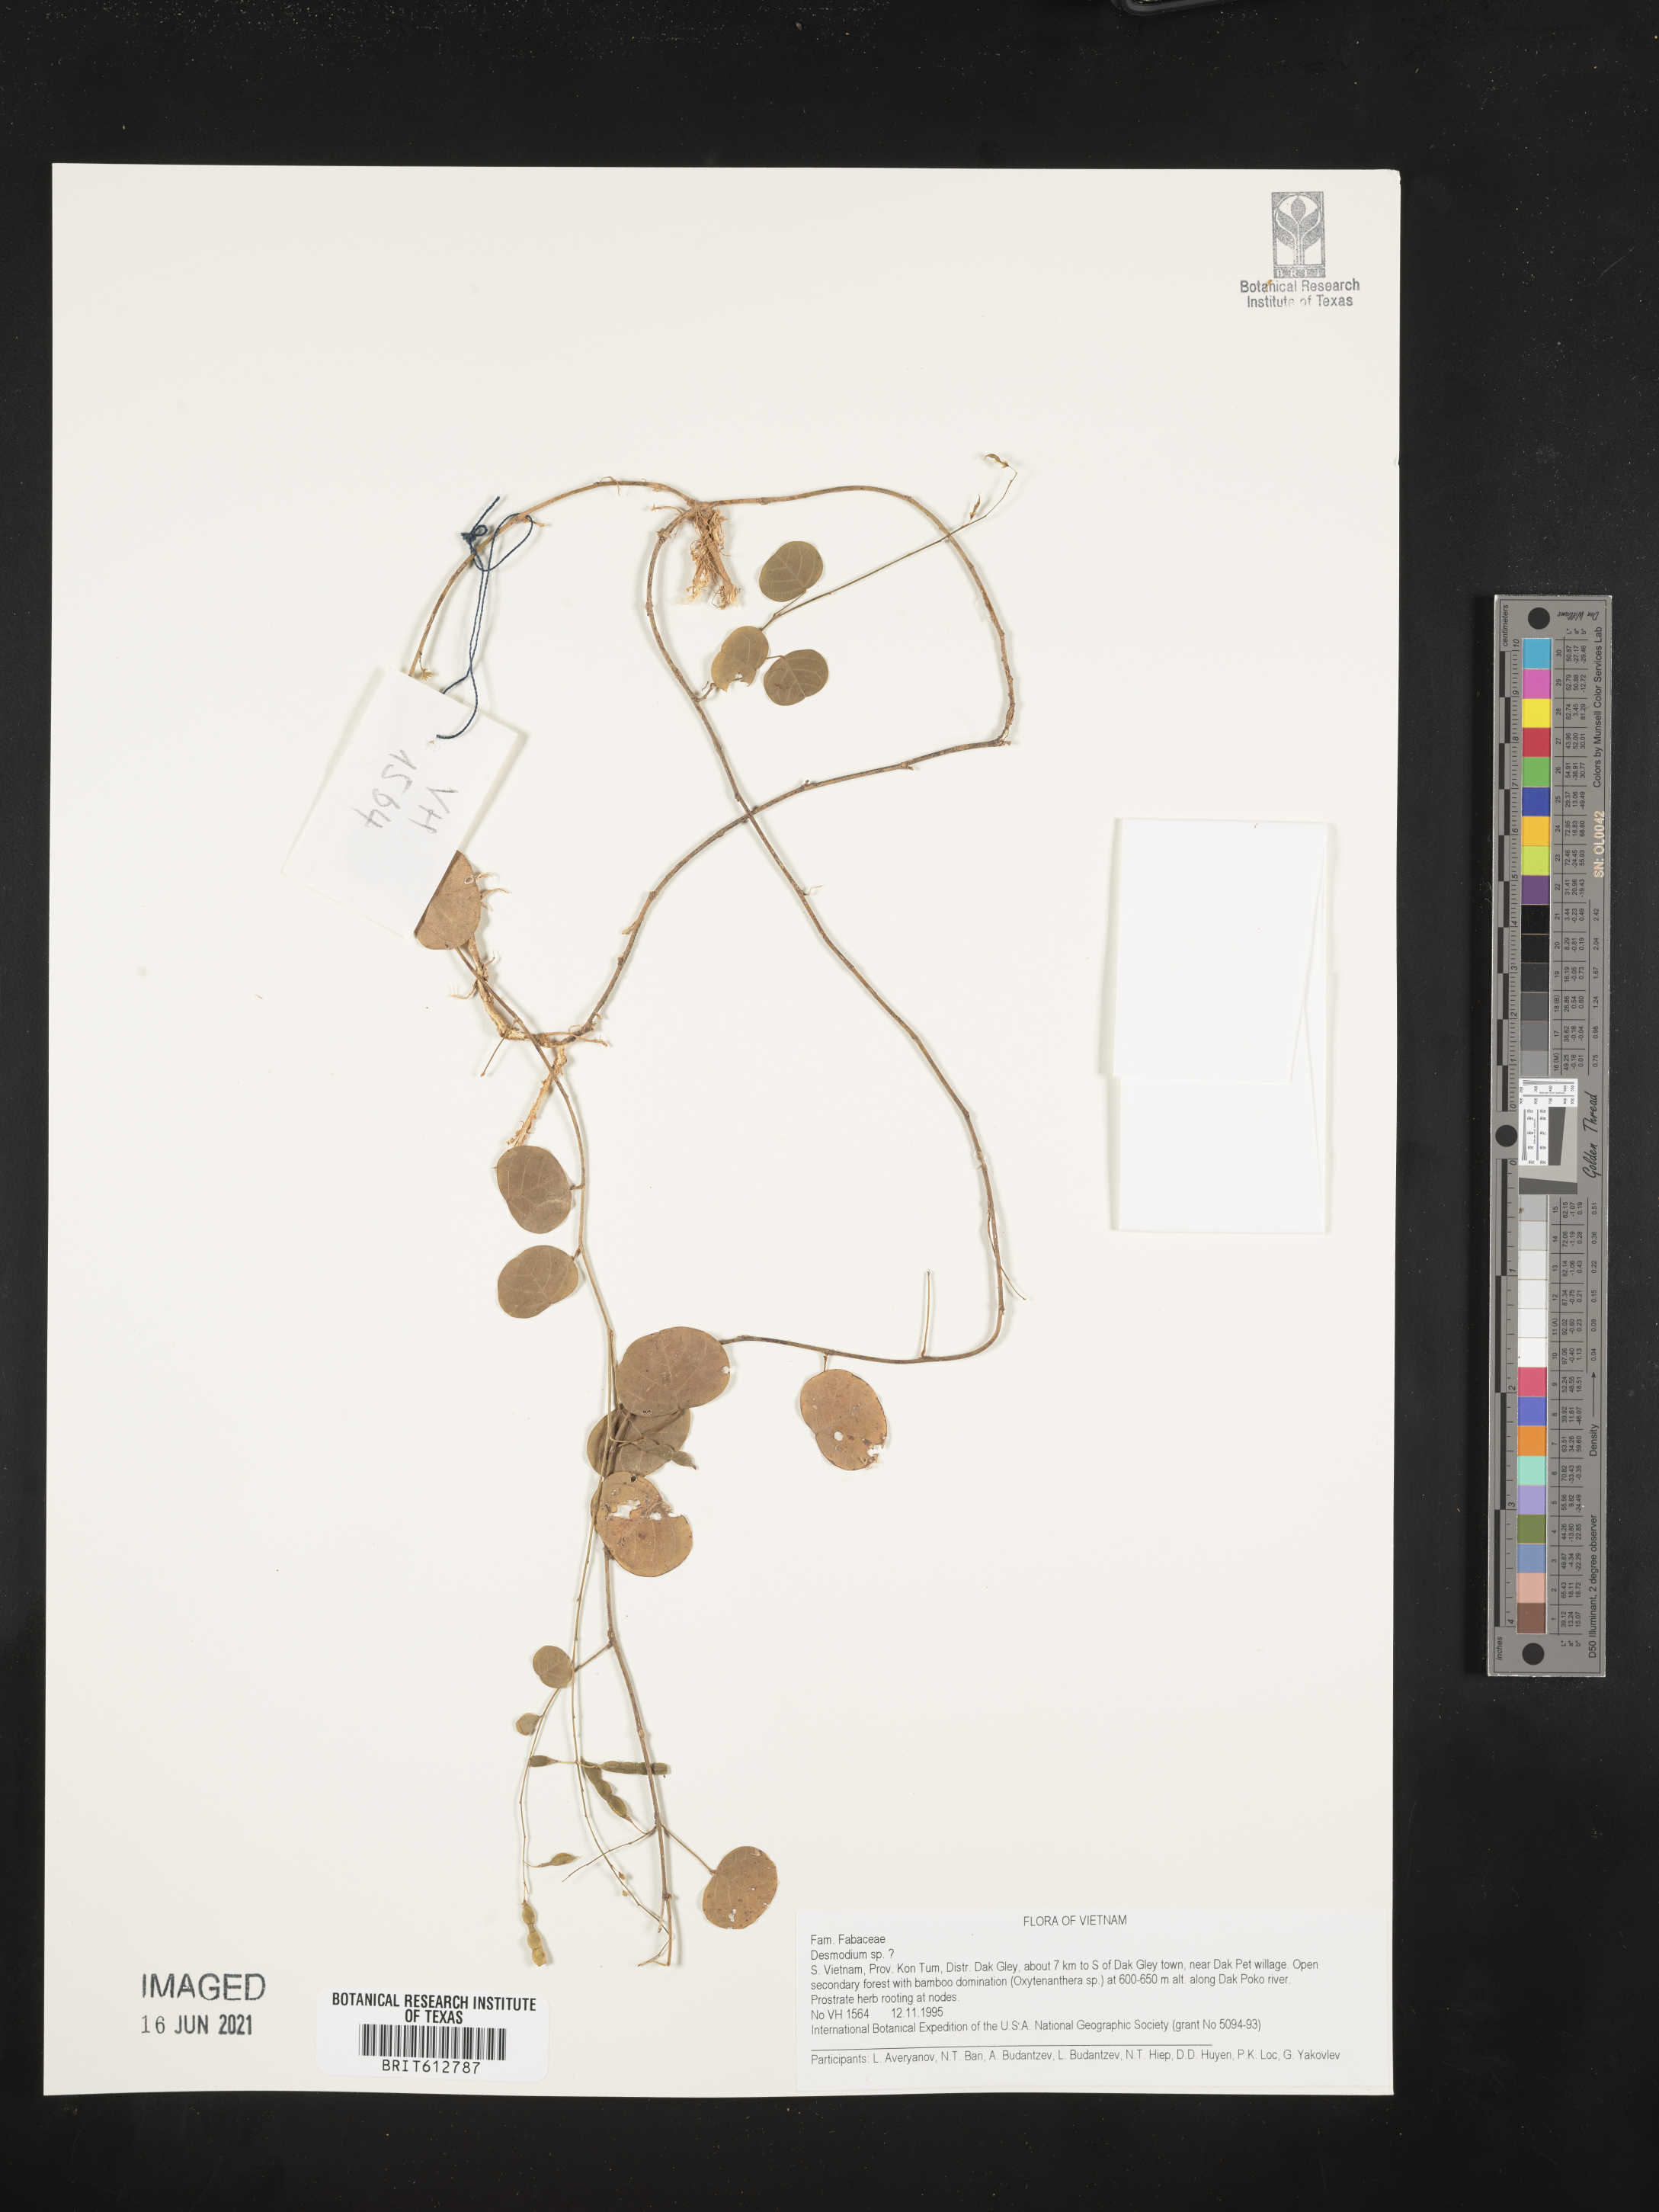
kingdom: Plantae
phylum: Tracheophyta
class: Magnoliopsida
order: Fabales
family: Fabaceae
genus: Desmodium
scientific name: Desmodium
